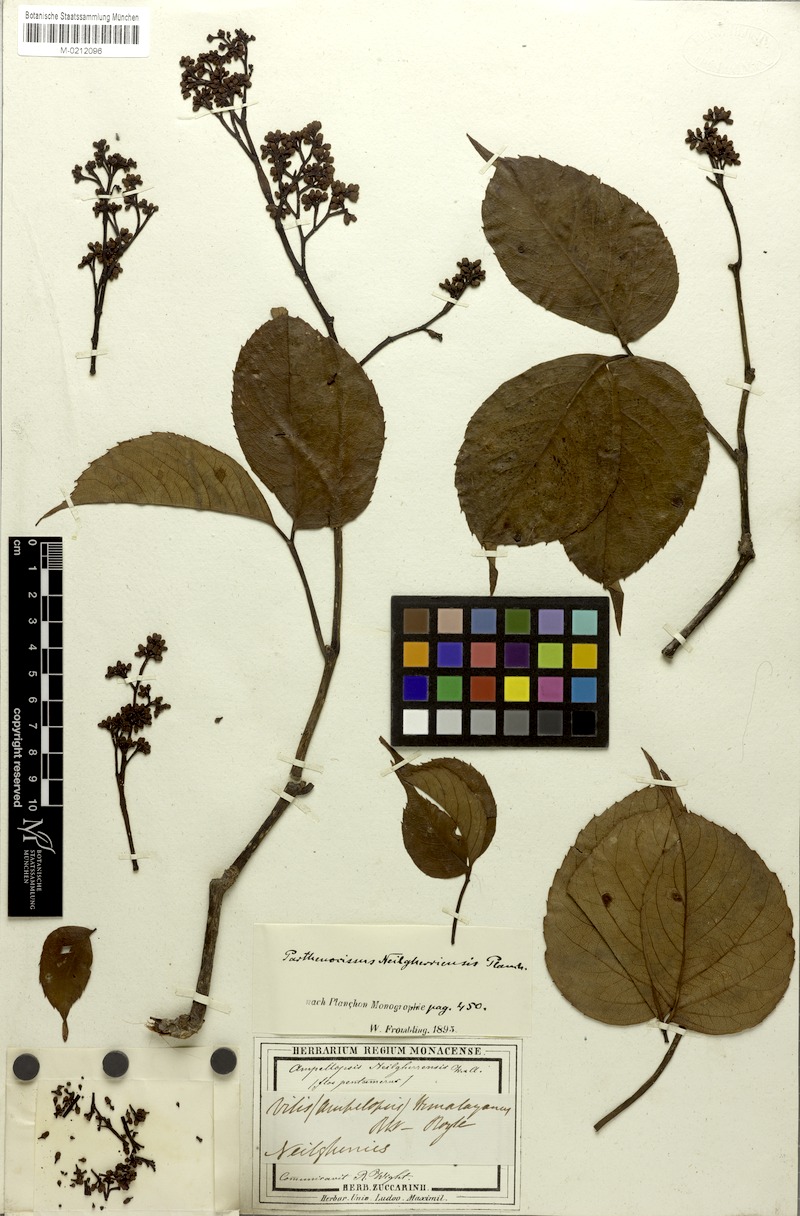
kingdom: Plantae
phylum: Tracheophyta
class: Magnoliopsida
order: Vitales
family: Vitaceae
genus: Parthenocissus
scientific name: Parthenocissus semicordata
